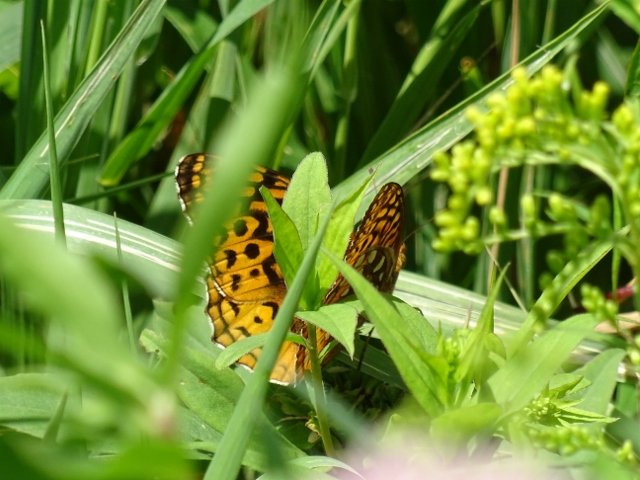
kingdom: Animalia
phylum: Arthropoda
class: Insecta
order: Lepidoptera
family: Nymphalidae
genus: Speyeria
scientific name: Speyeria
